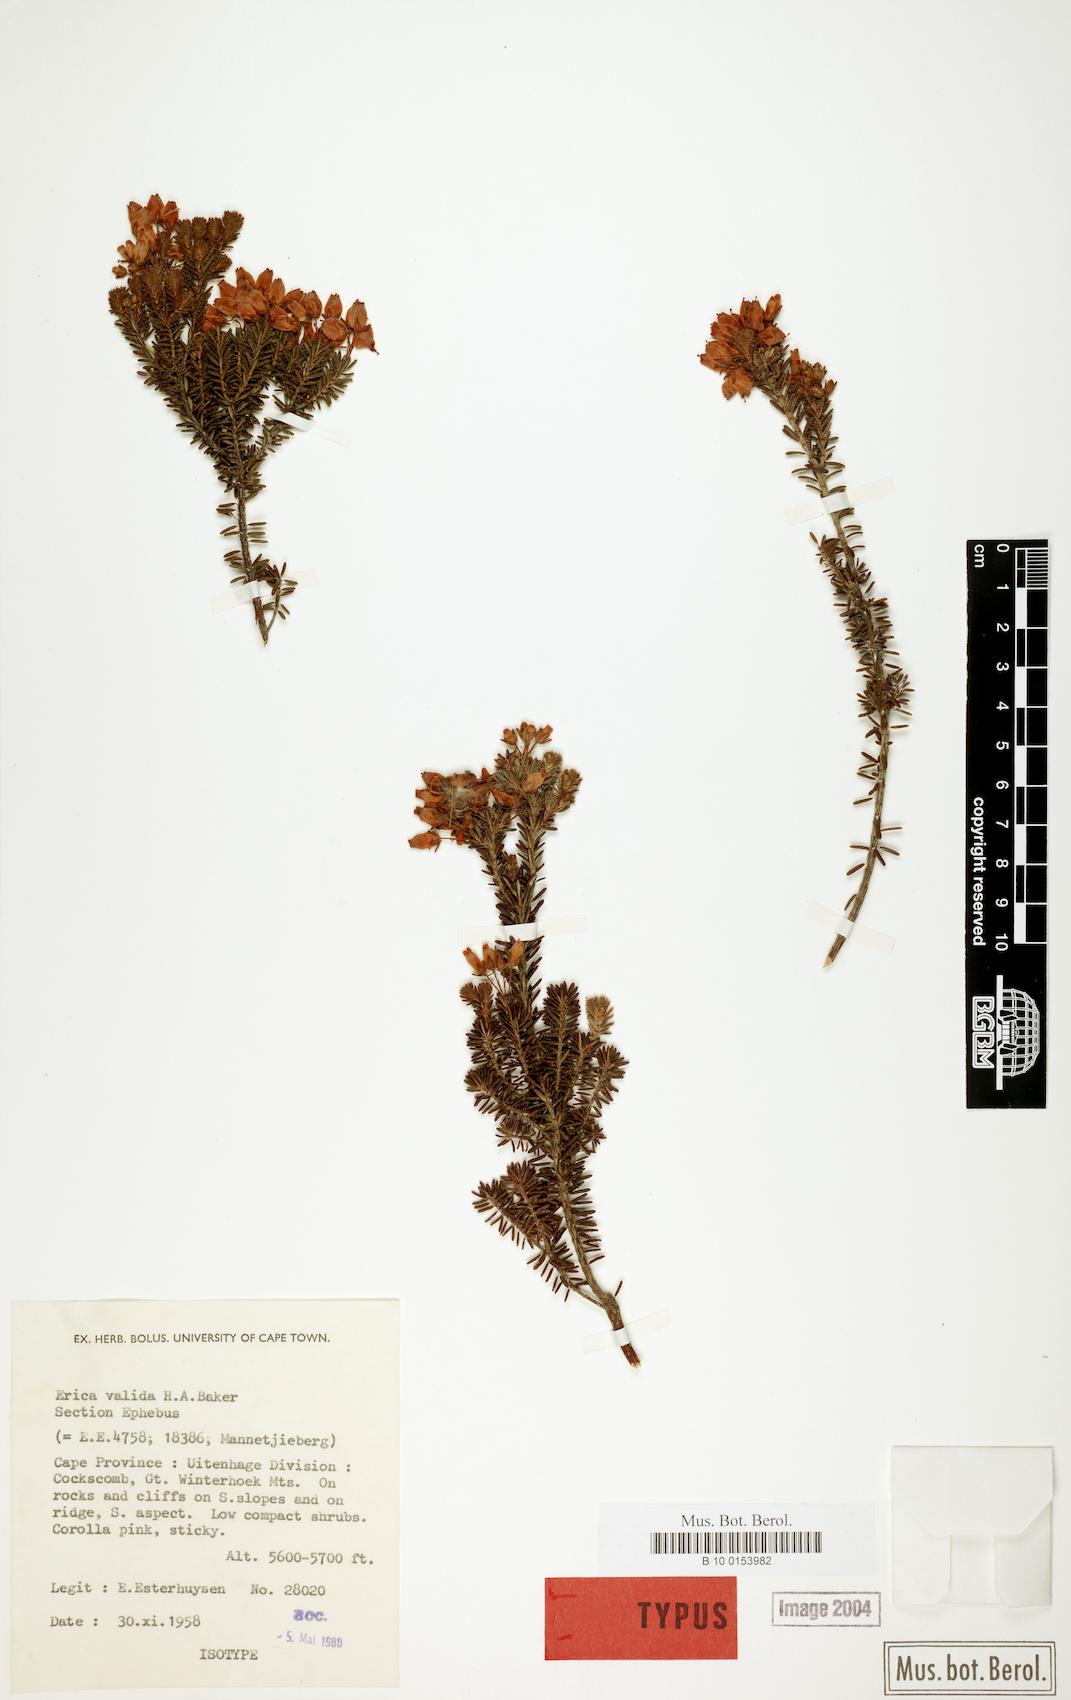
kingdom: Plantae
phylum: Tracheophyta
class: Magnoliopsida
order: Ericales
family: Ericaceae
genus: Erica
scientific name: Erica valida
